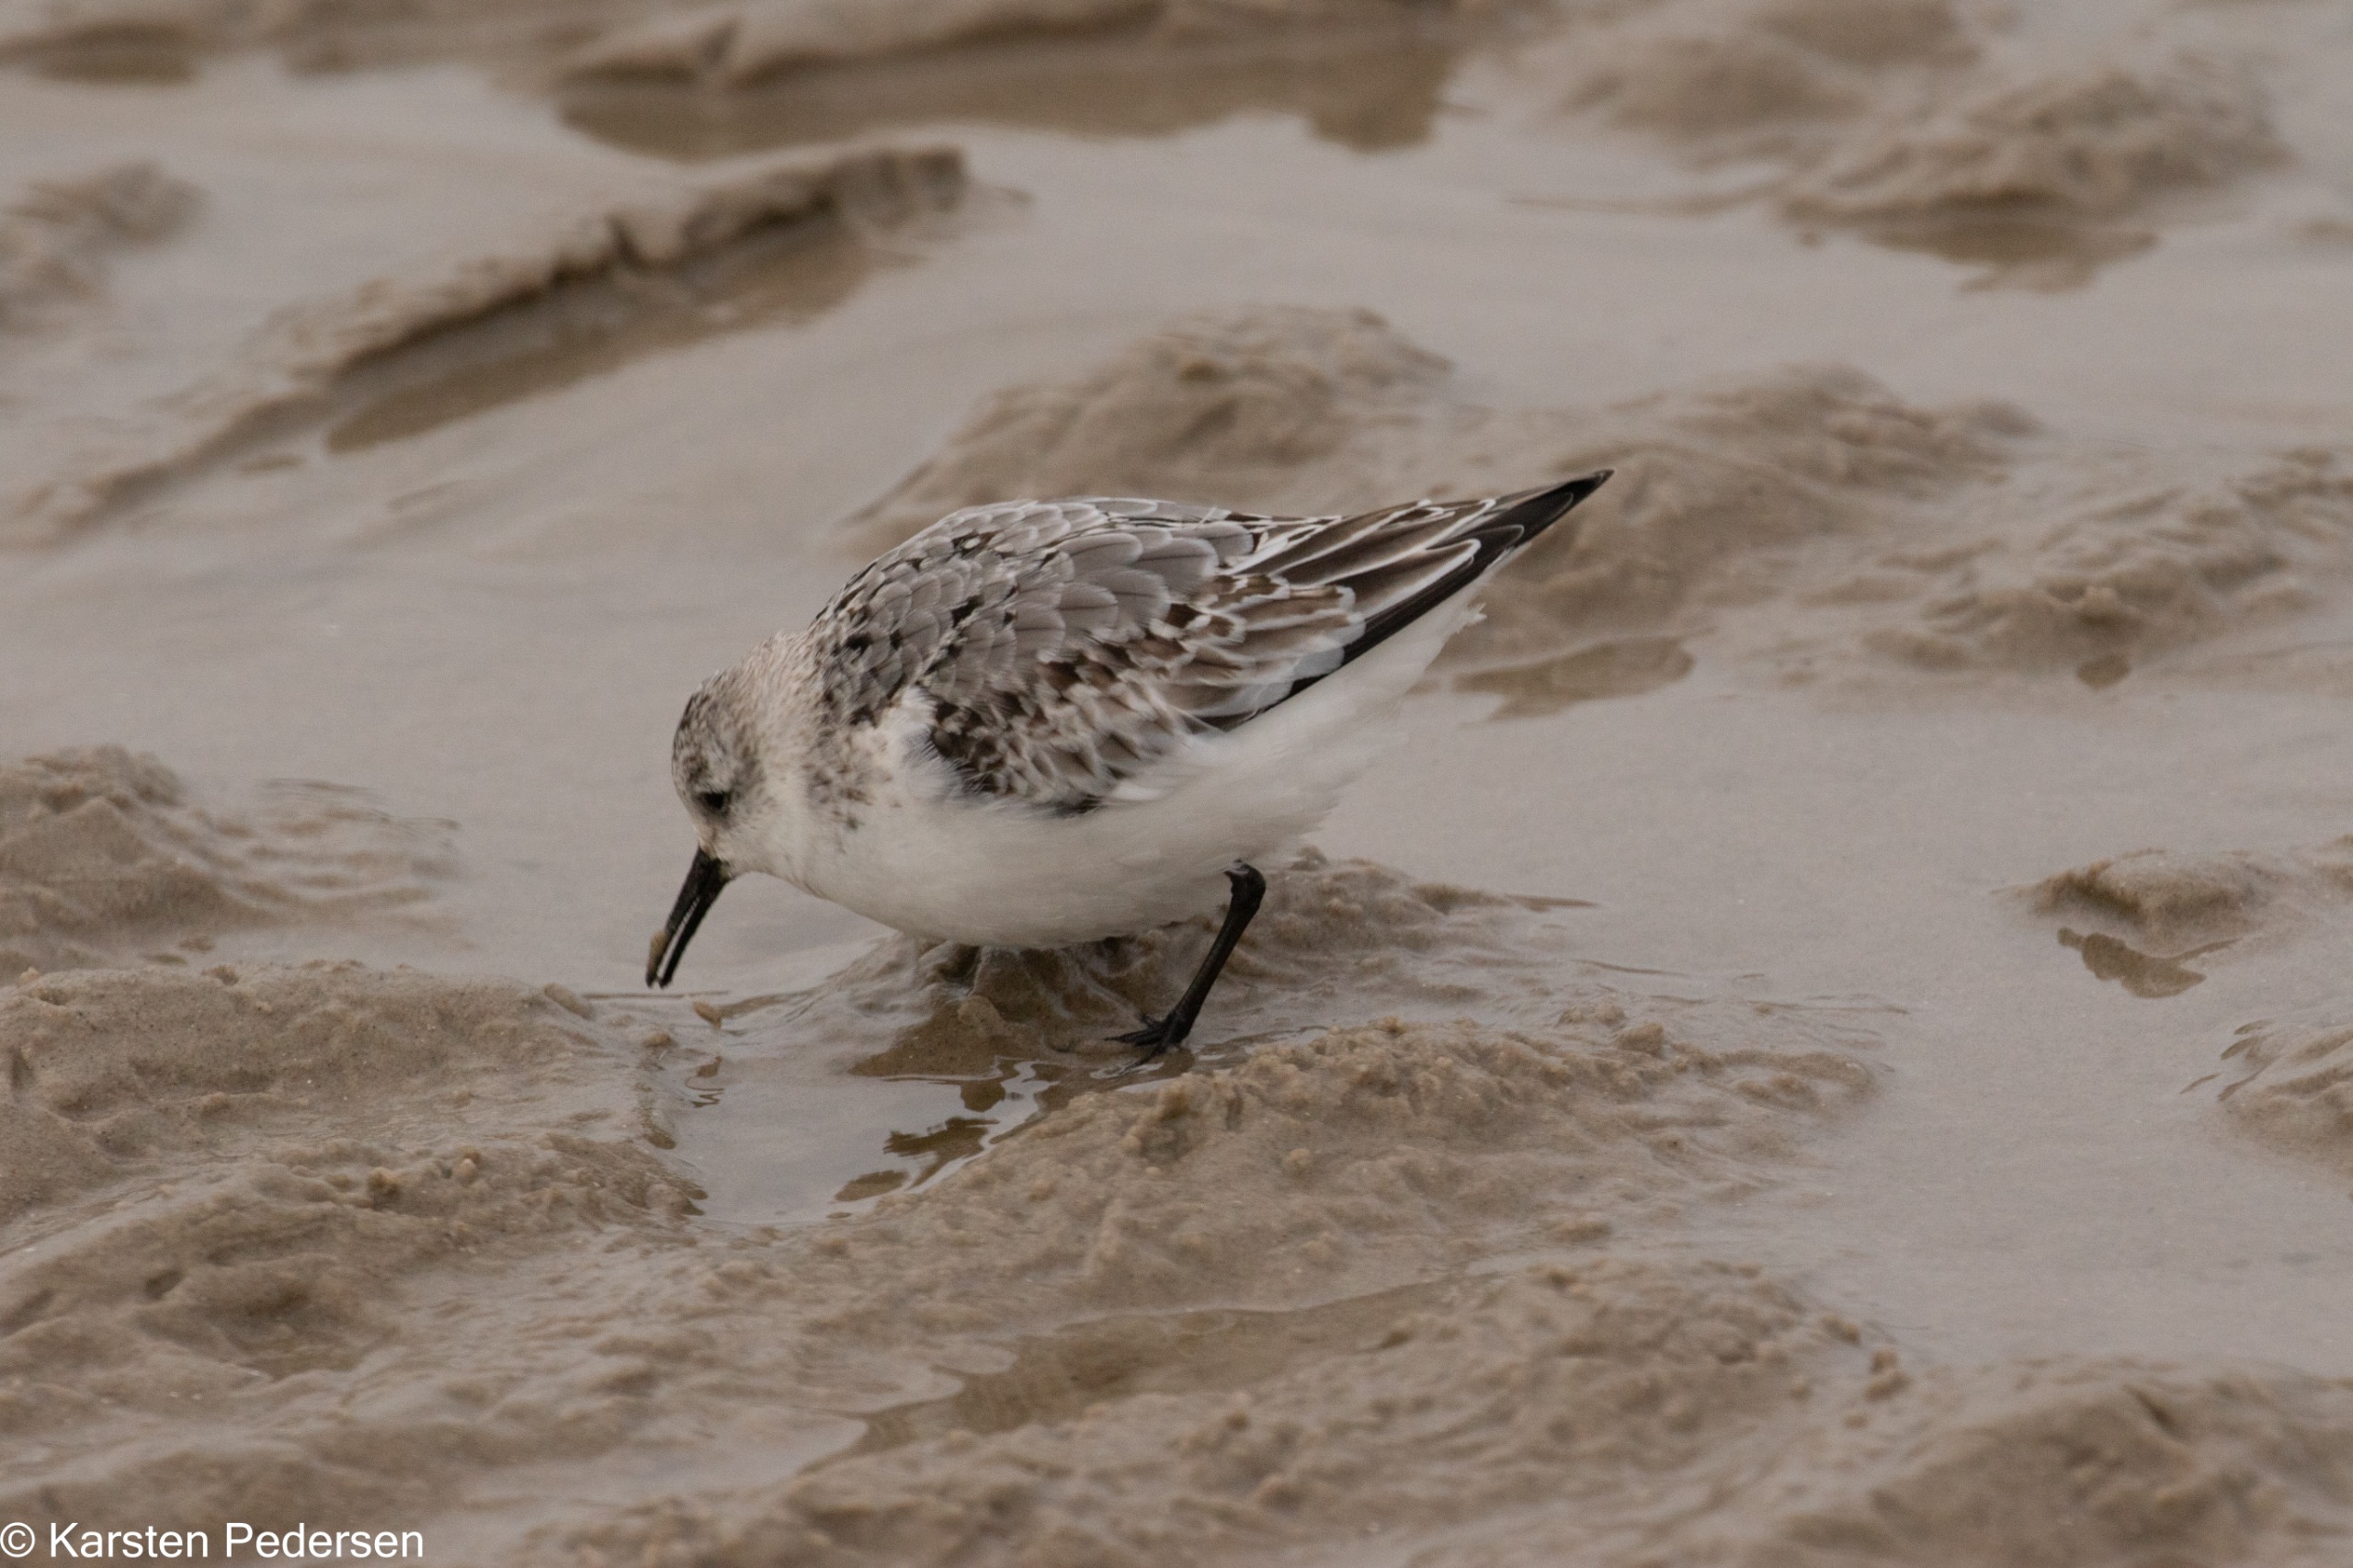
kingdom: Animalia
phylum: Chordata
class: Aves
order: Charadriiformes
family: Scolopacidae
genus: Calidris
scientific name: Calidris alba
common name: Sandløber
